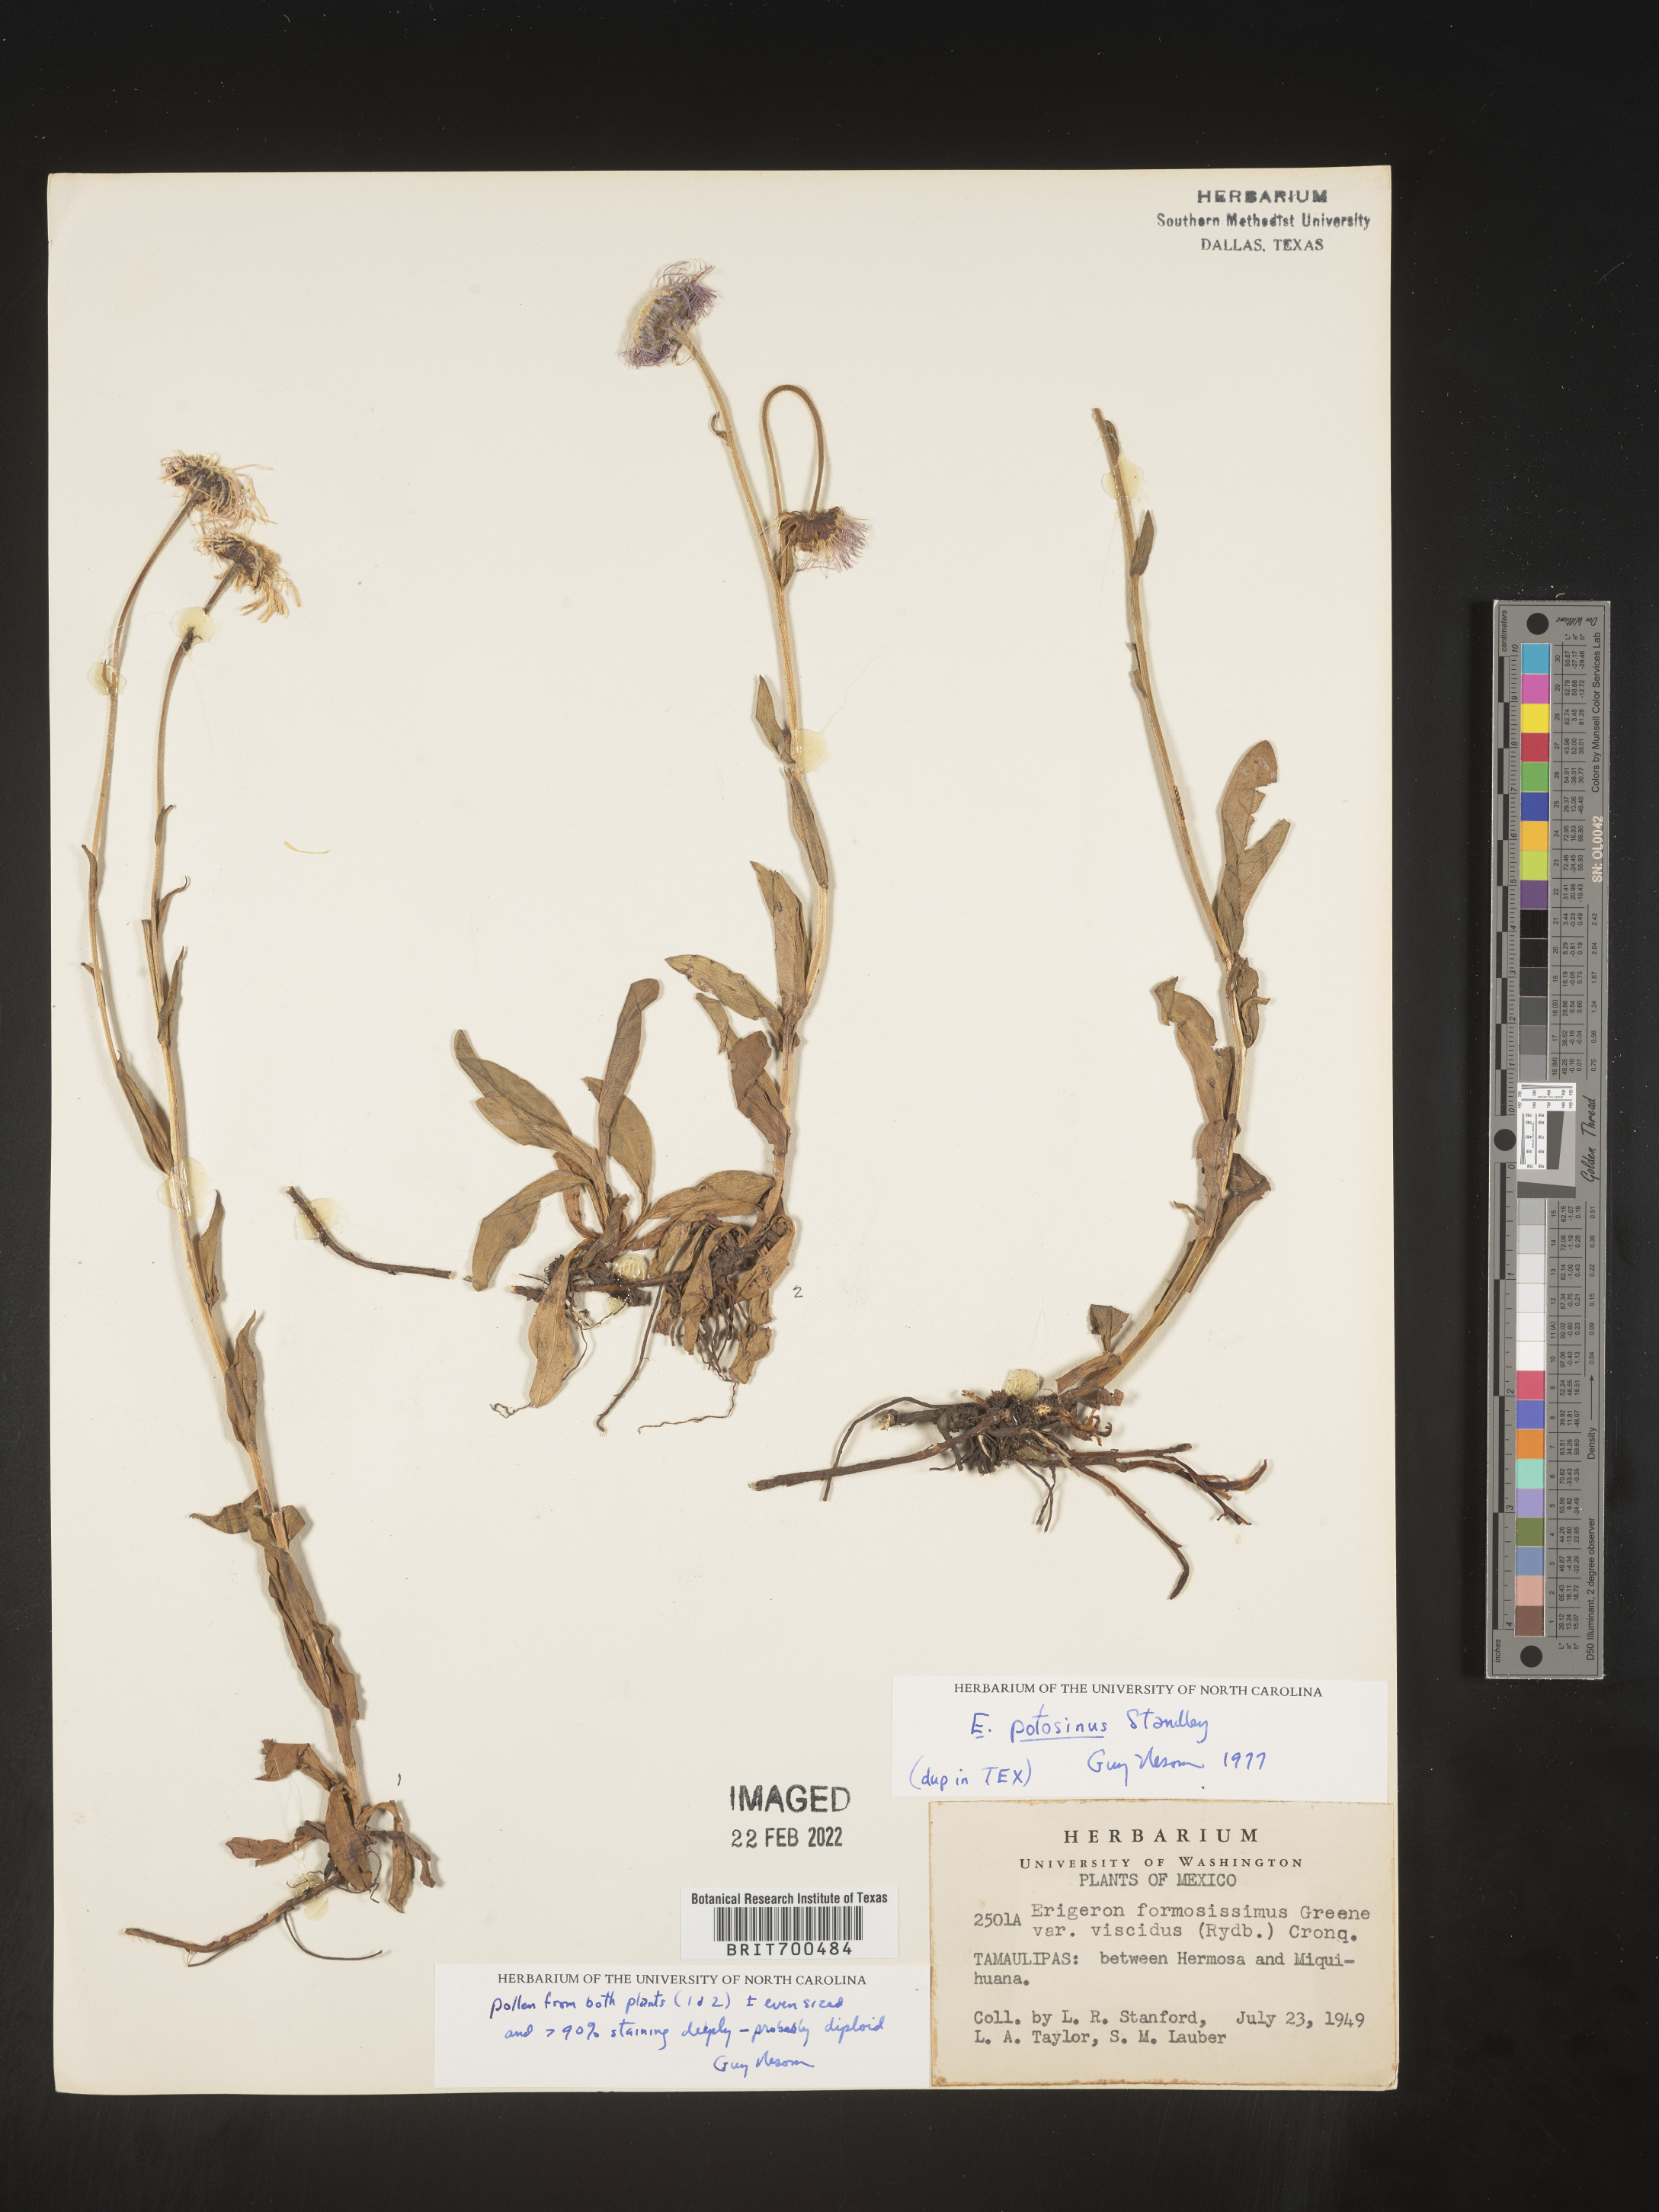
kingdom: Plantae
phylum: Tracheophyta
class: Magnoliopsida
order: Asterales
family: Asteraceae
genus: Erigeron
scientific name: Erigeron
